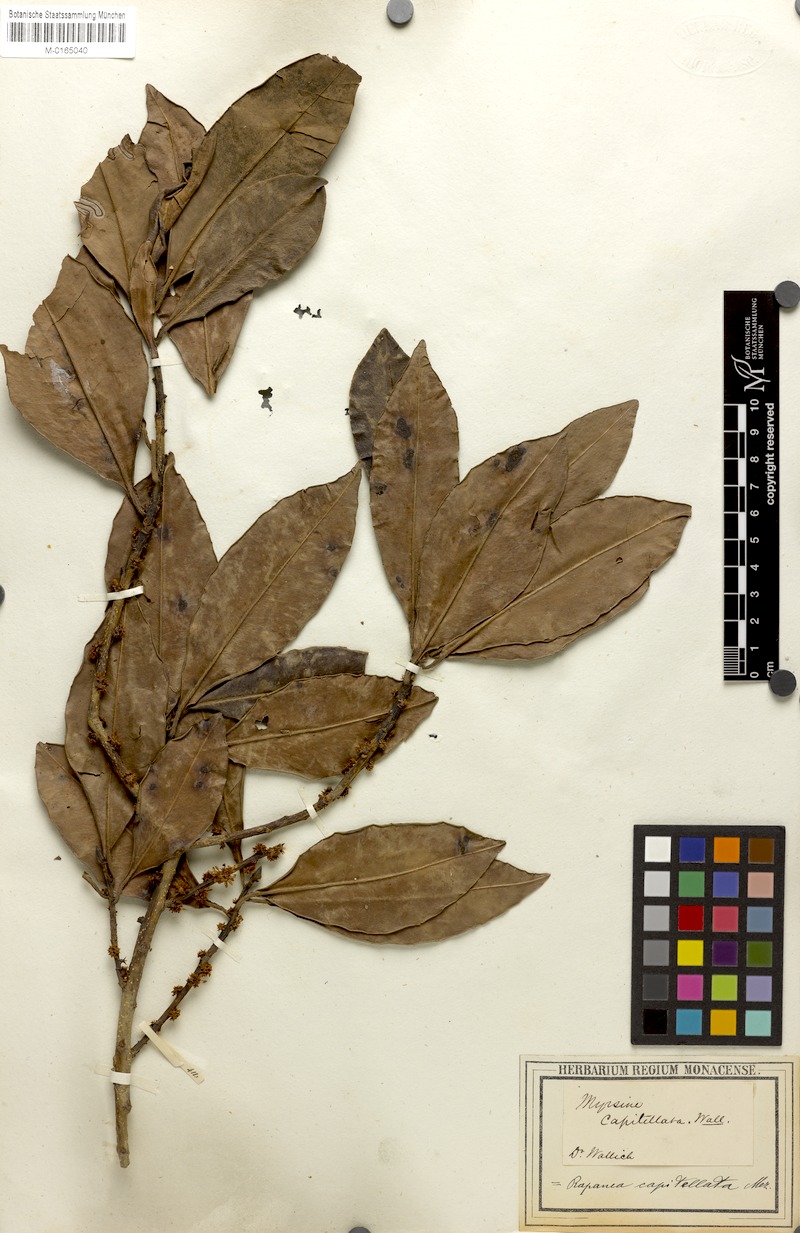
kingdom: Plantae
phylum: Tracheophyta
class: Magnoliopsida
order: Ericales
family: Primulaceae
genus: Myrsine
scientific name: Myrsine capitellata
